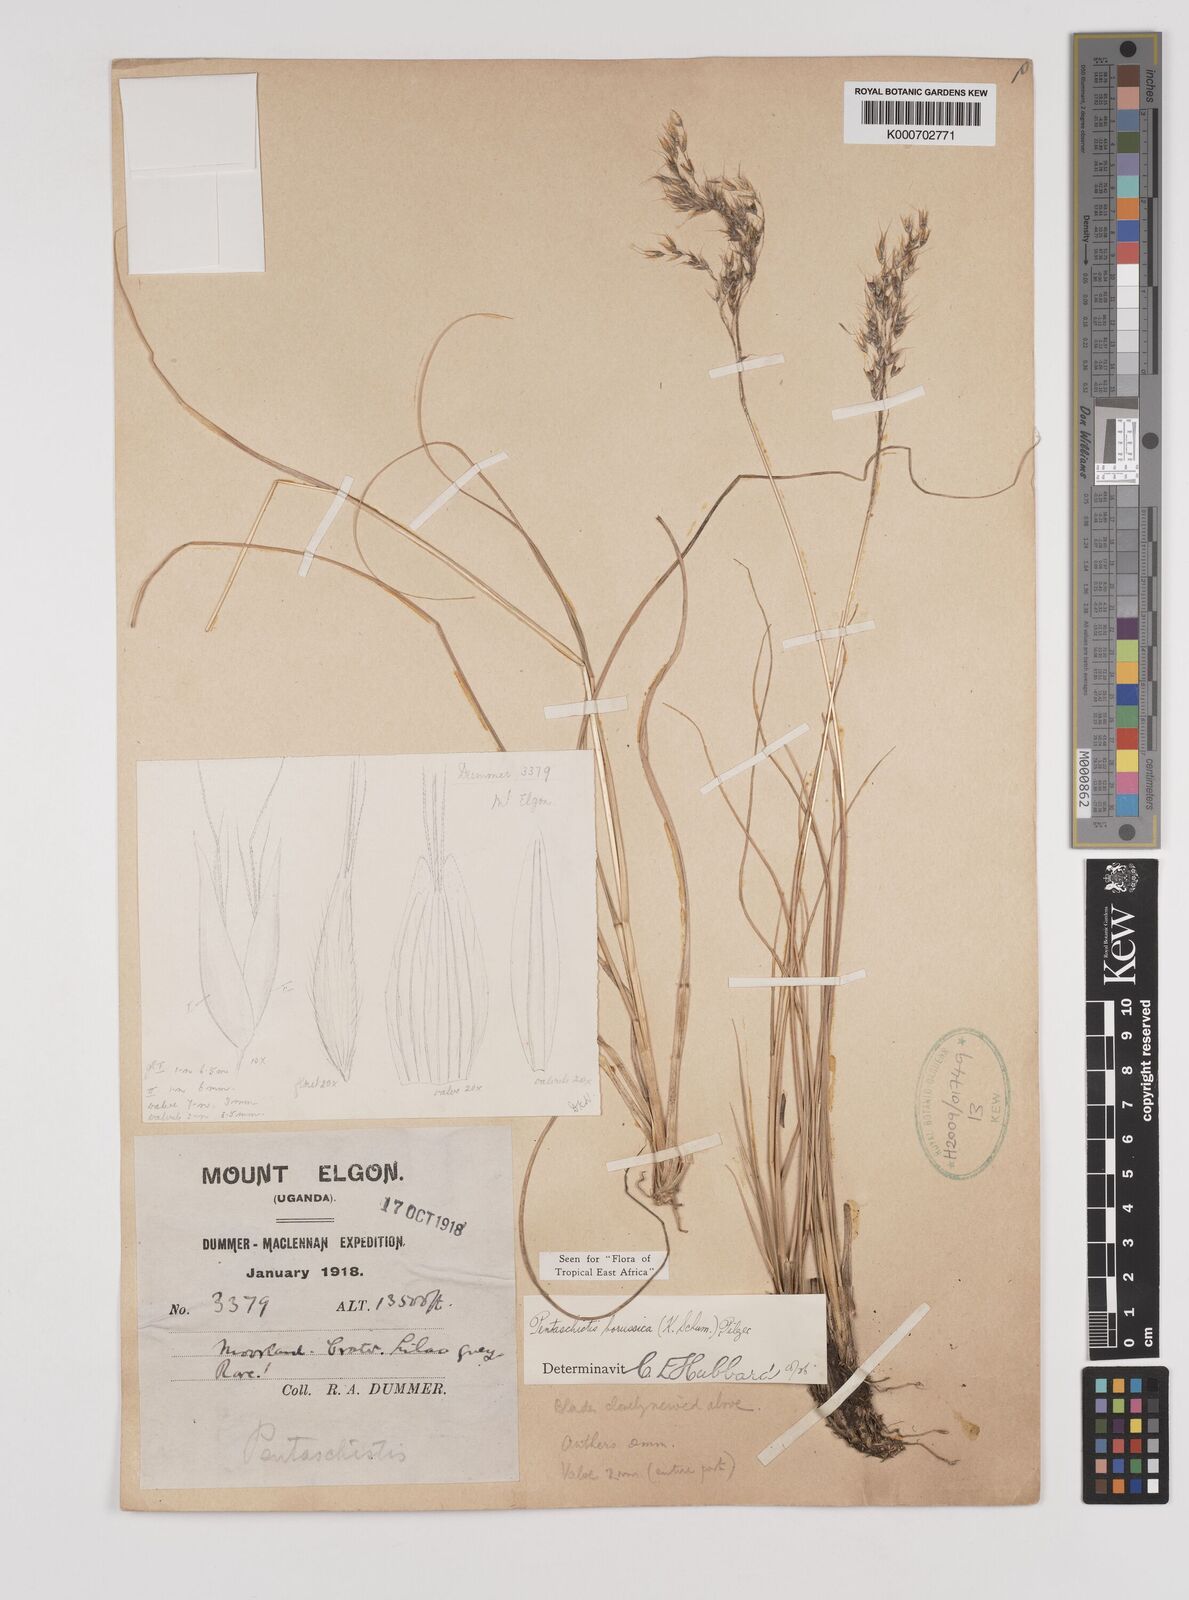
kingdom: Plantae
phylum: Tracheophyta
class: Liliopsida
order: Poales
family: Poaceae
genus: Pentameris
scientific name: Pentameris borussica
